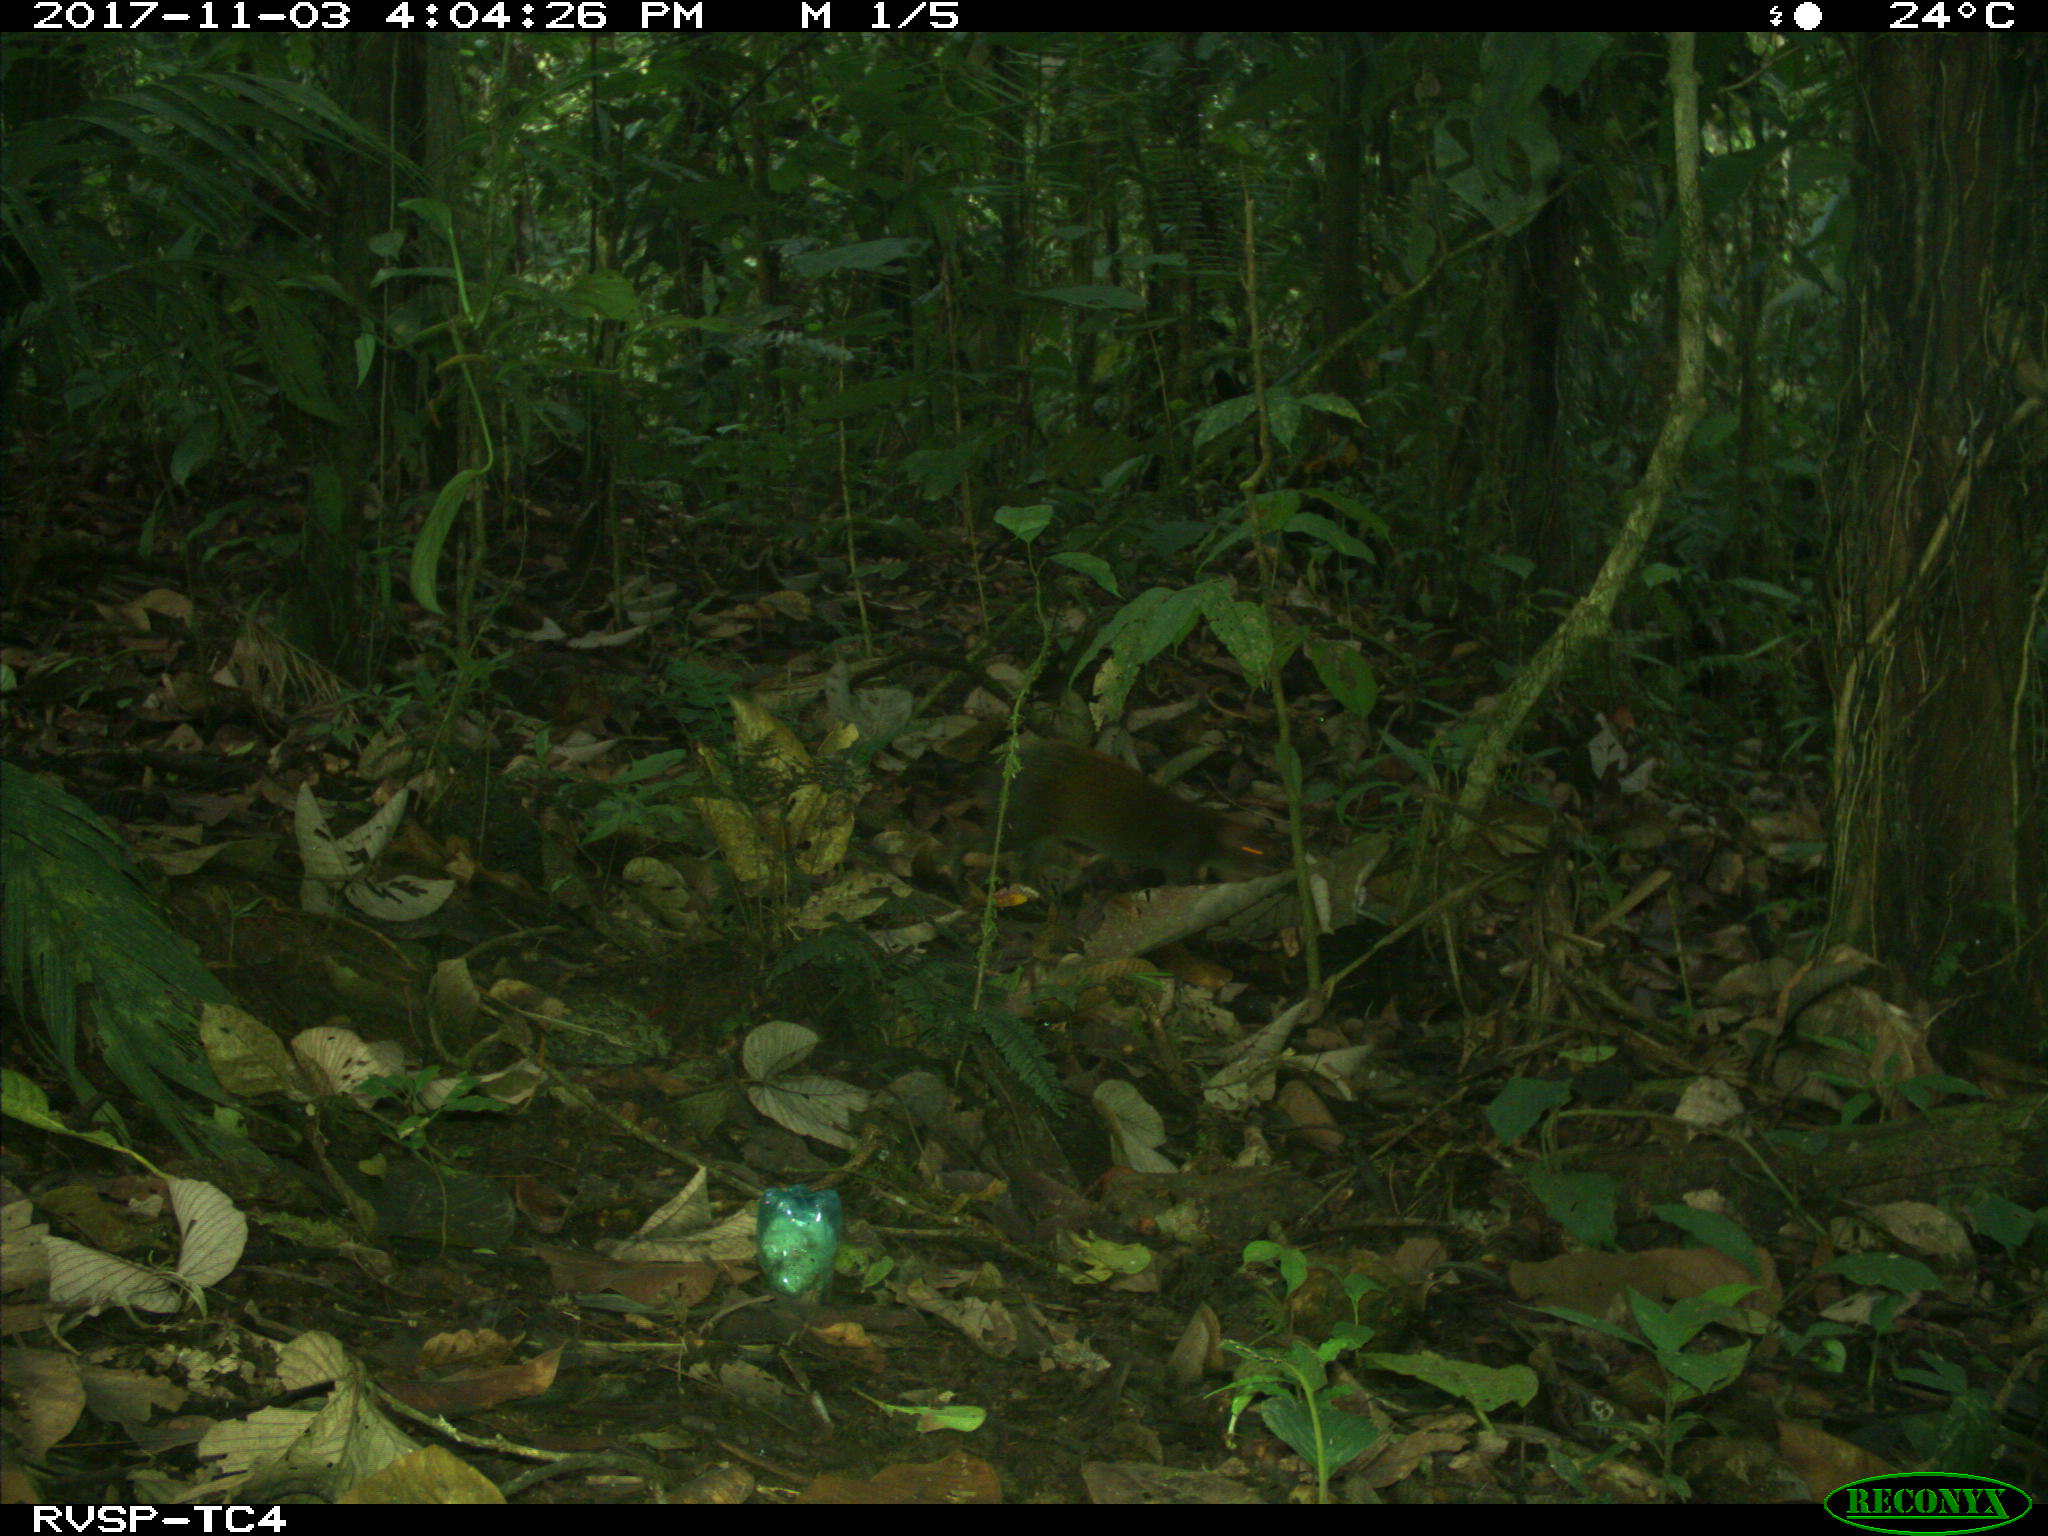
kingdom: Animalia
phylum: Chordata
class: Mammalia
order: Rodentia
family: Dasyproctidae
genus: Dasyprocta
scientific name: Dasyprocta punctata
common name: Central american agouti
